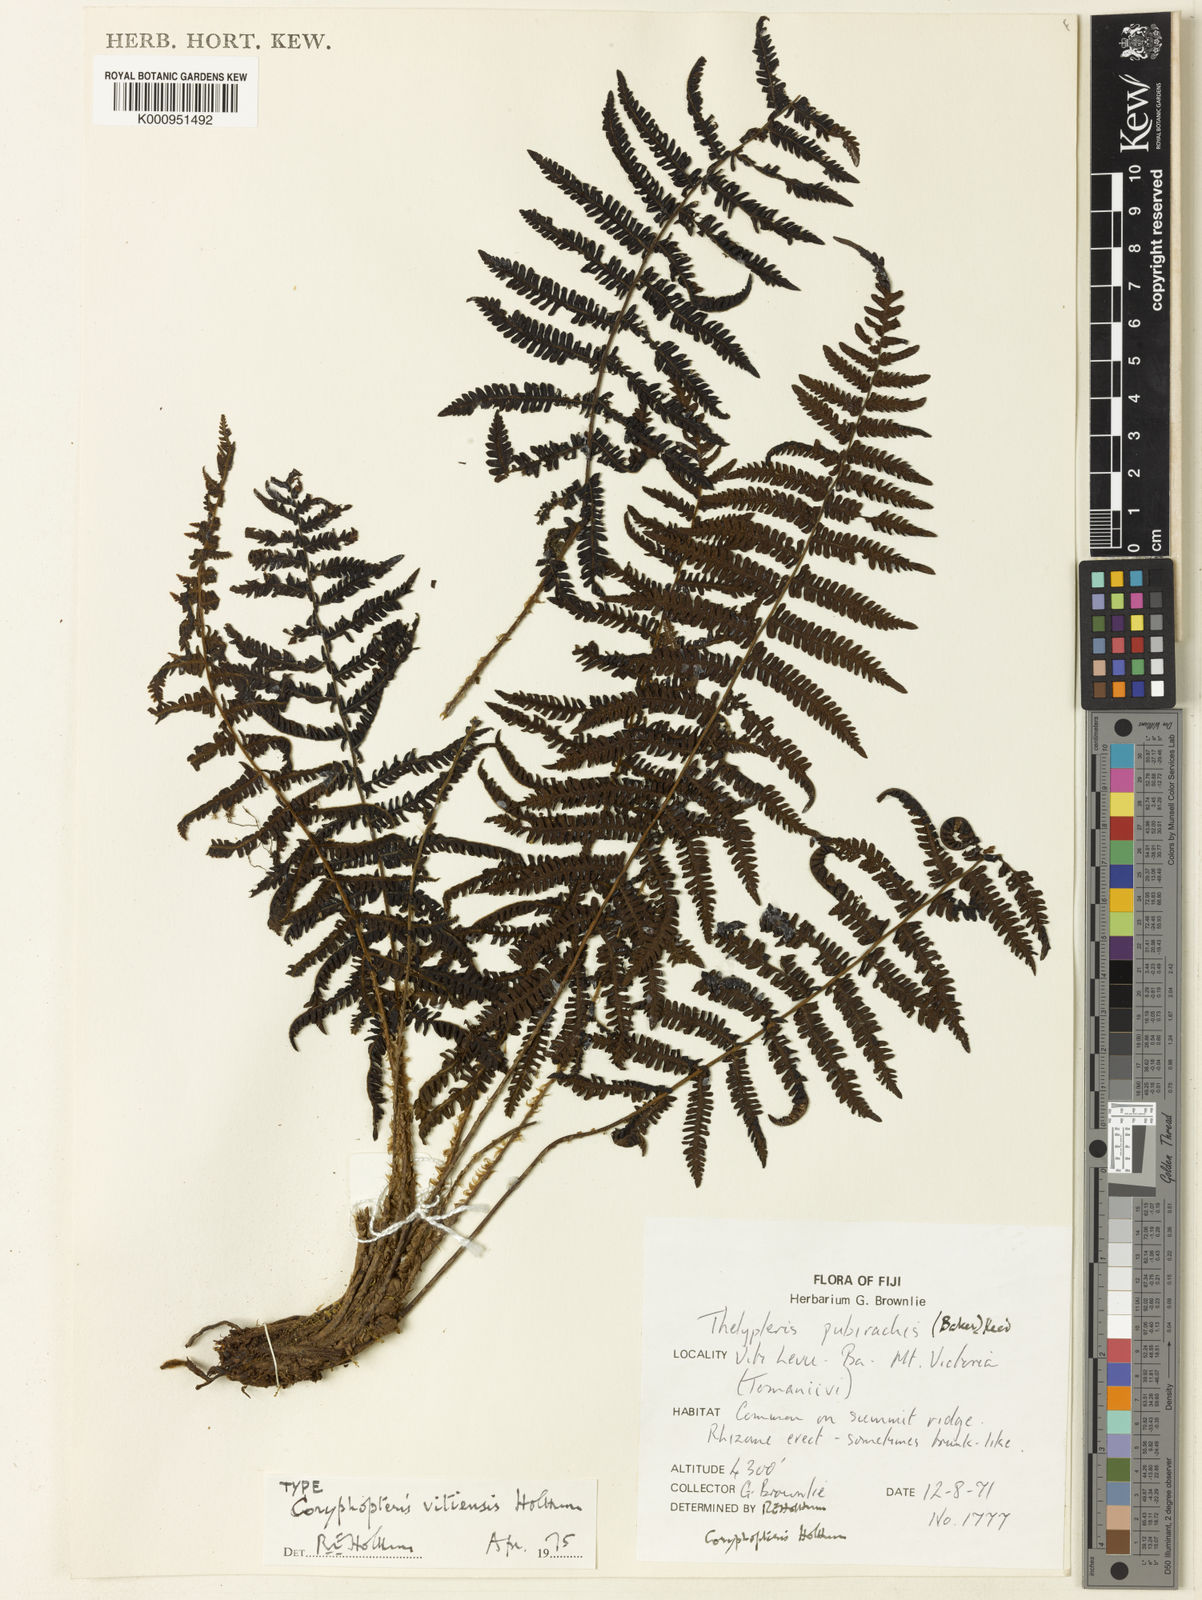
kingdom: Plantae
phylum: Tracheophyta
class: Polypodiopsida
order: Polypodiales
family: Thelypteridaceae
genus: Coryphopteris
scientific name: Coryphopteris vitiensis
